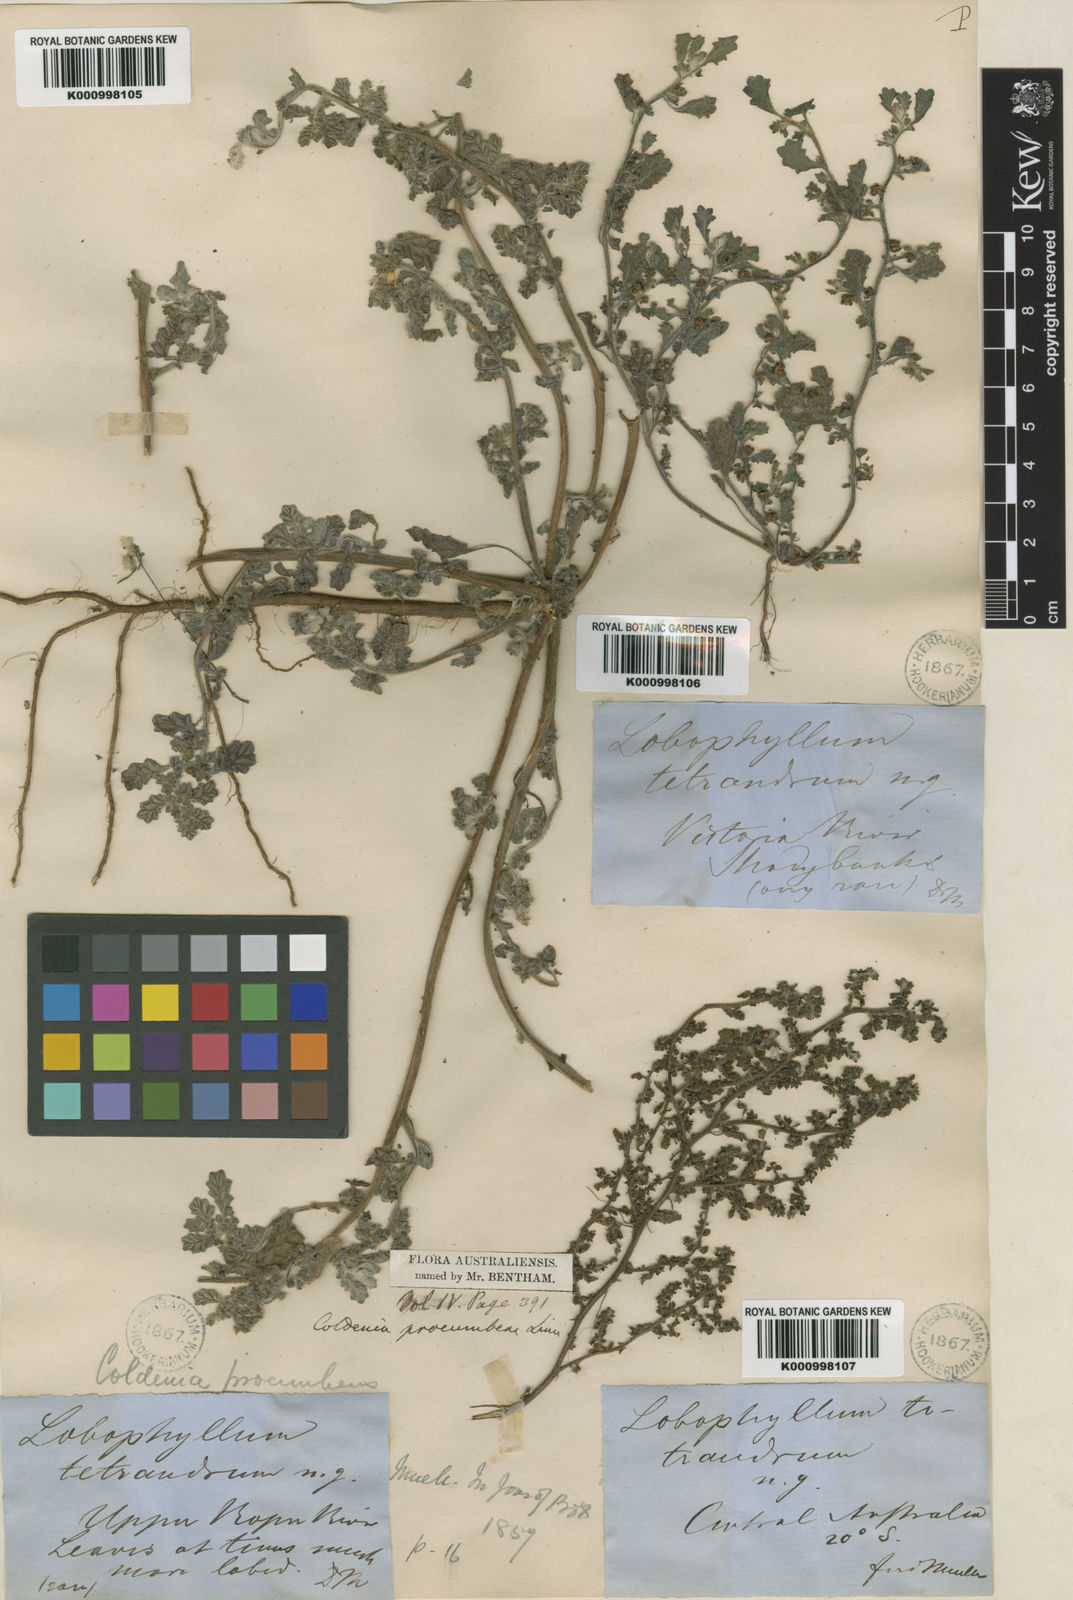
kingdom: Plantae
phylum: Tracheophyta
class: Magnoliopsida
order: Boraginales
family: Coldeniaceae
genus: Coldenia
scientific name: Coldenia procumbens
